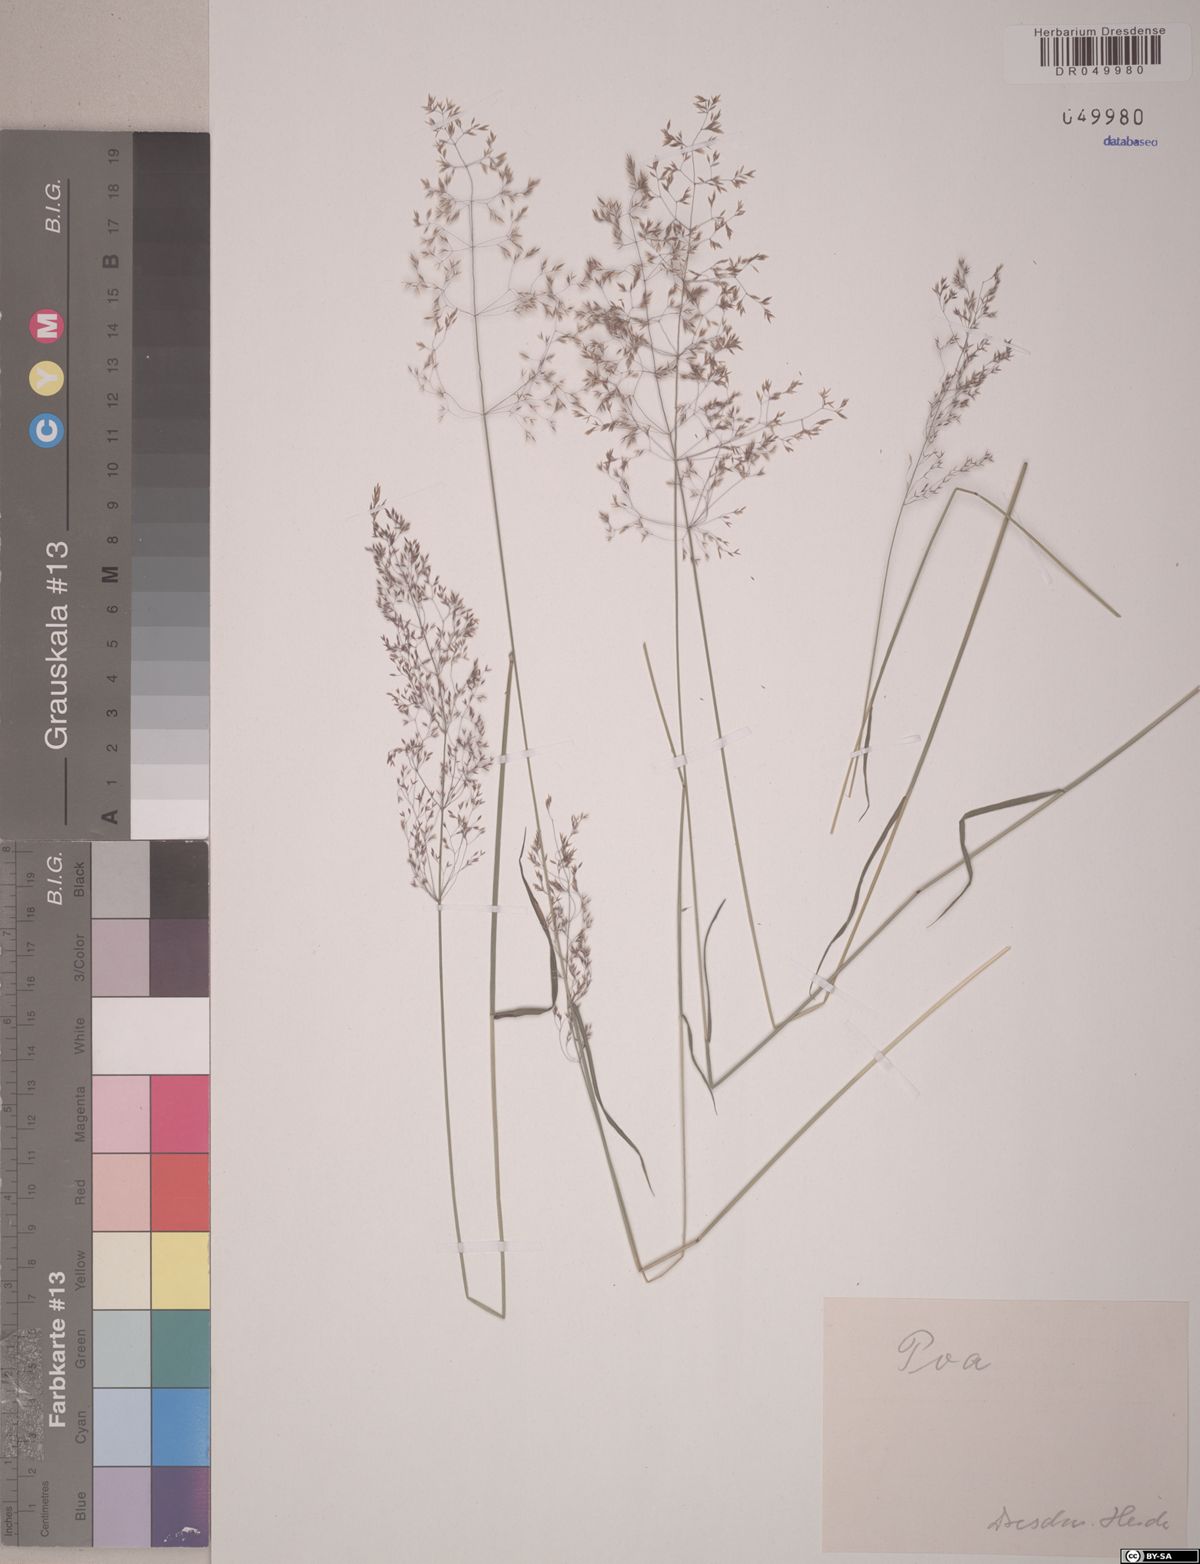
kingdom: Plantae
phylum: Tracheophyta
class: Liliopsida
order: Poales
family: Poaceae
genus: Poa
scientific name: Poa
